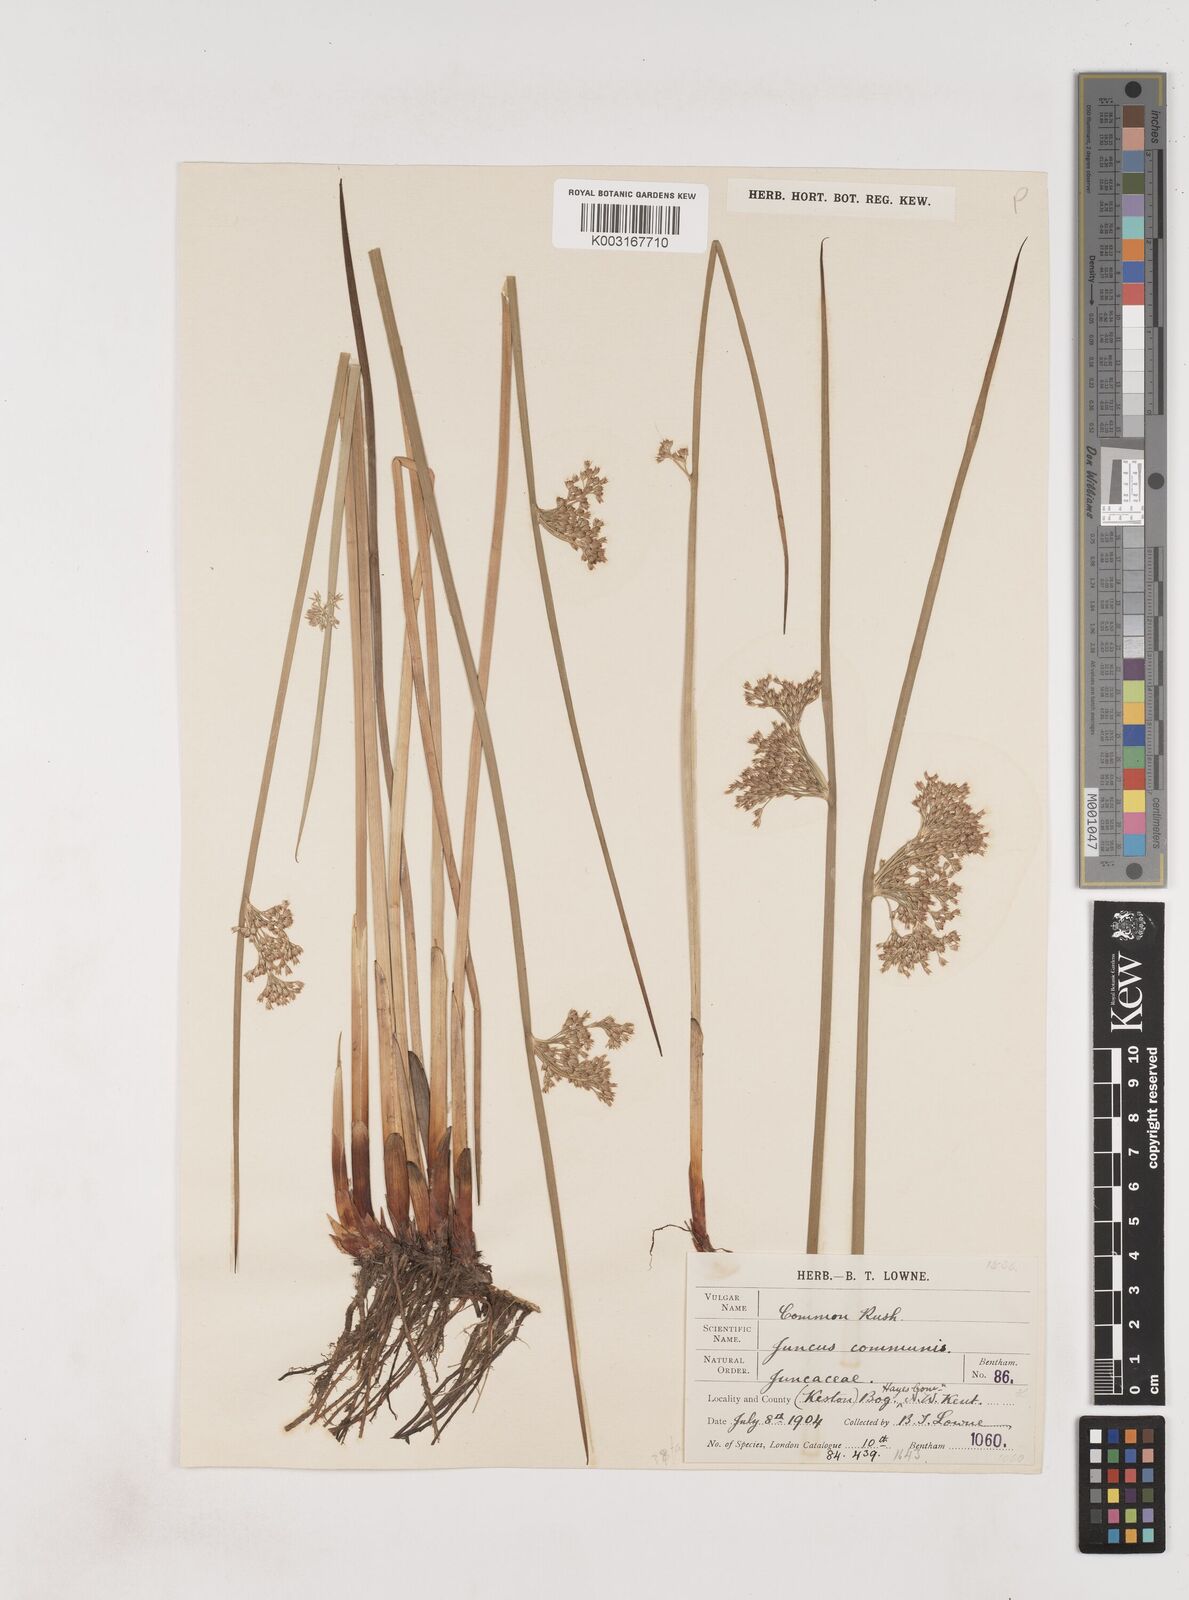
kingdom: Plantae
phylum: Tracheophyta
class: Liliopsida
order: Poales
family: Juncaceae
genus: Juncus
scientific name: Juncus effusus
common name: Soft rush
